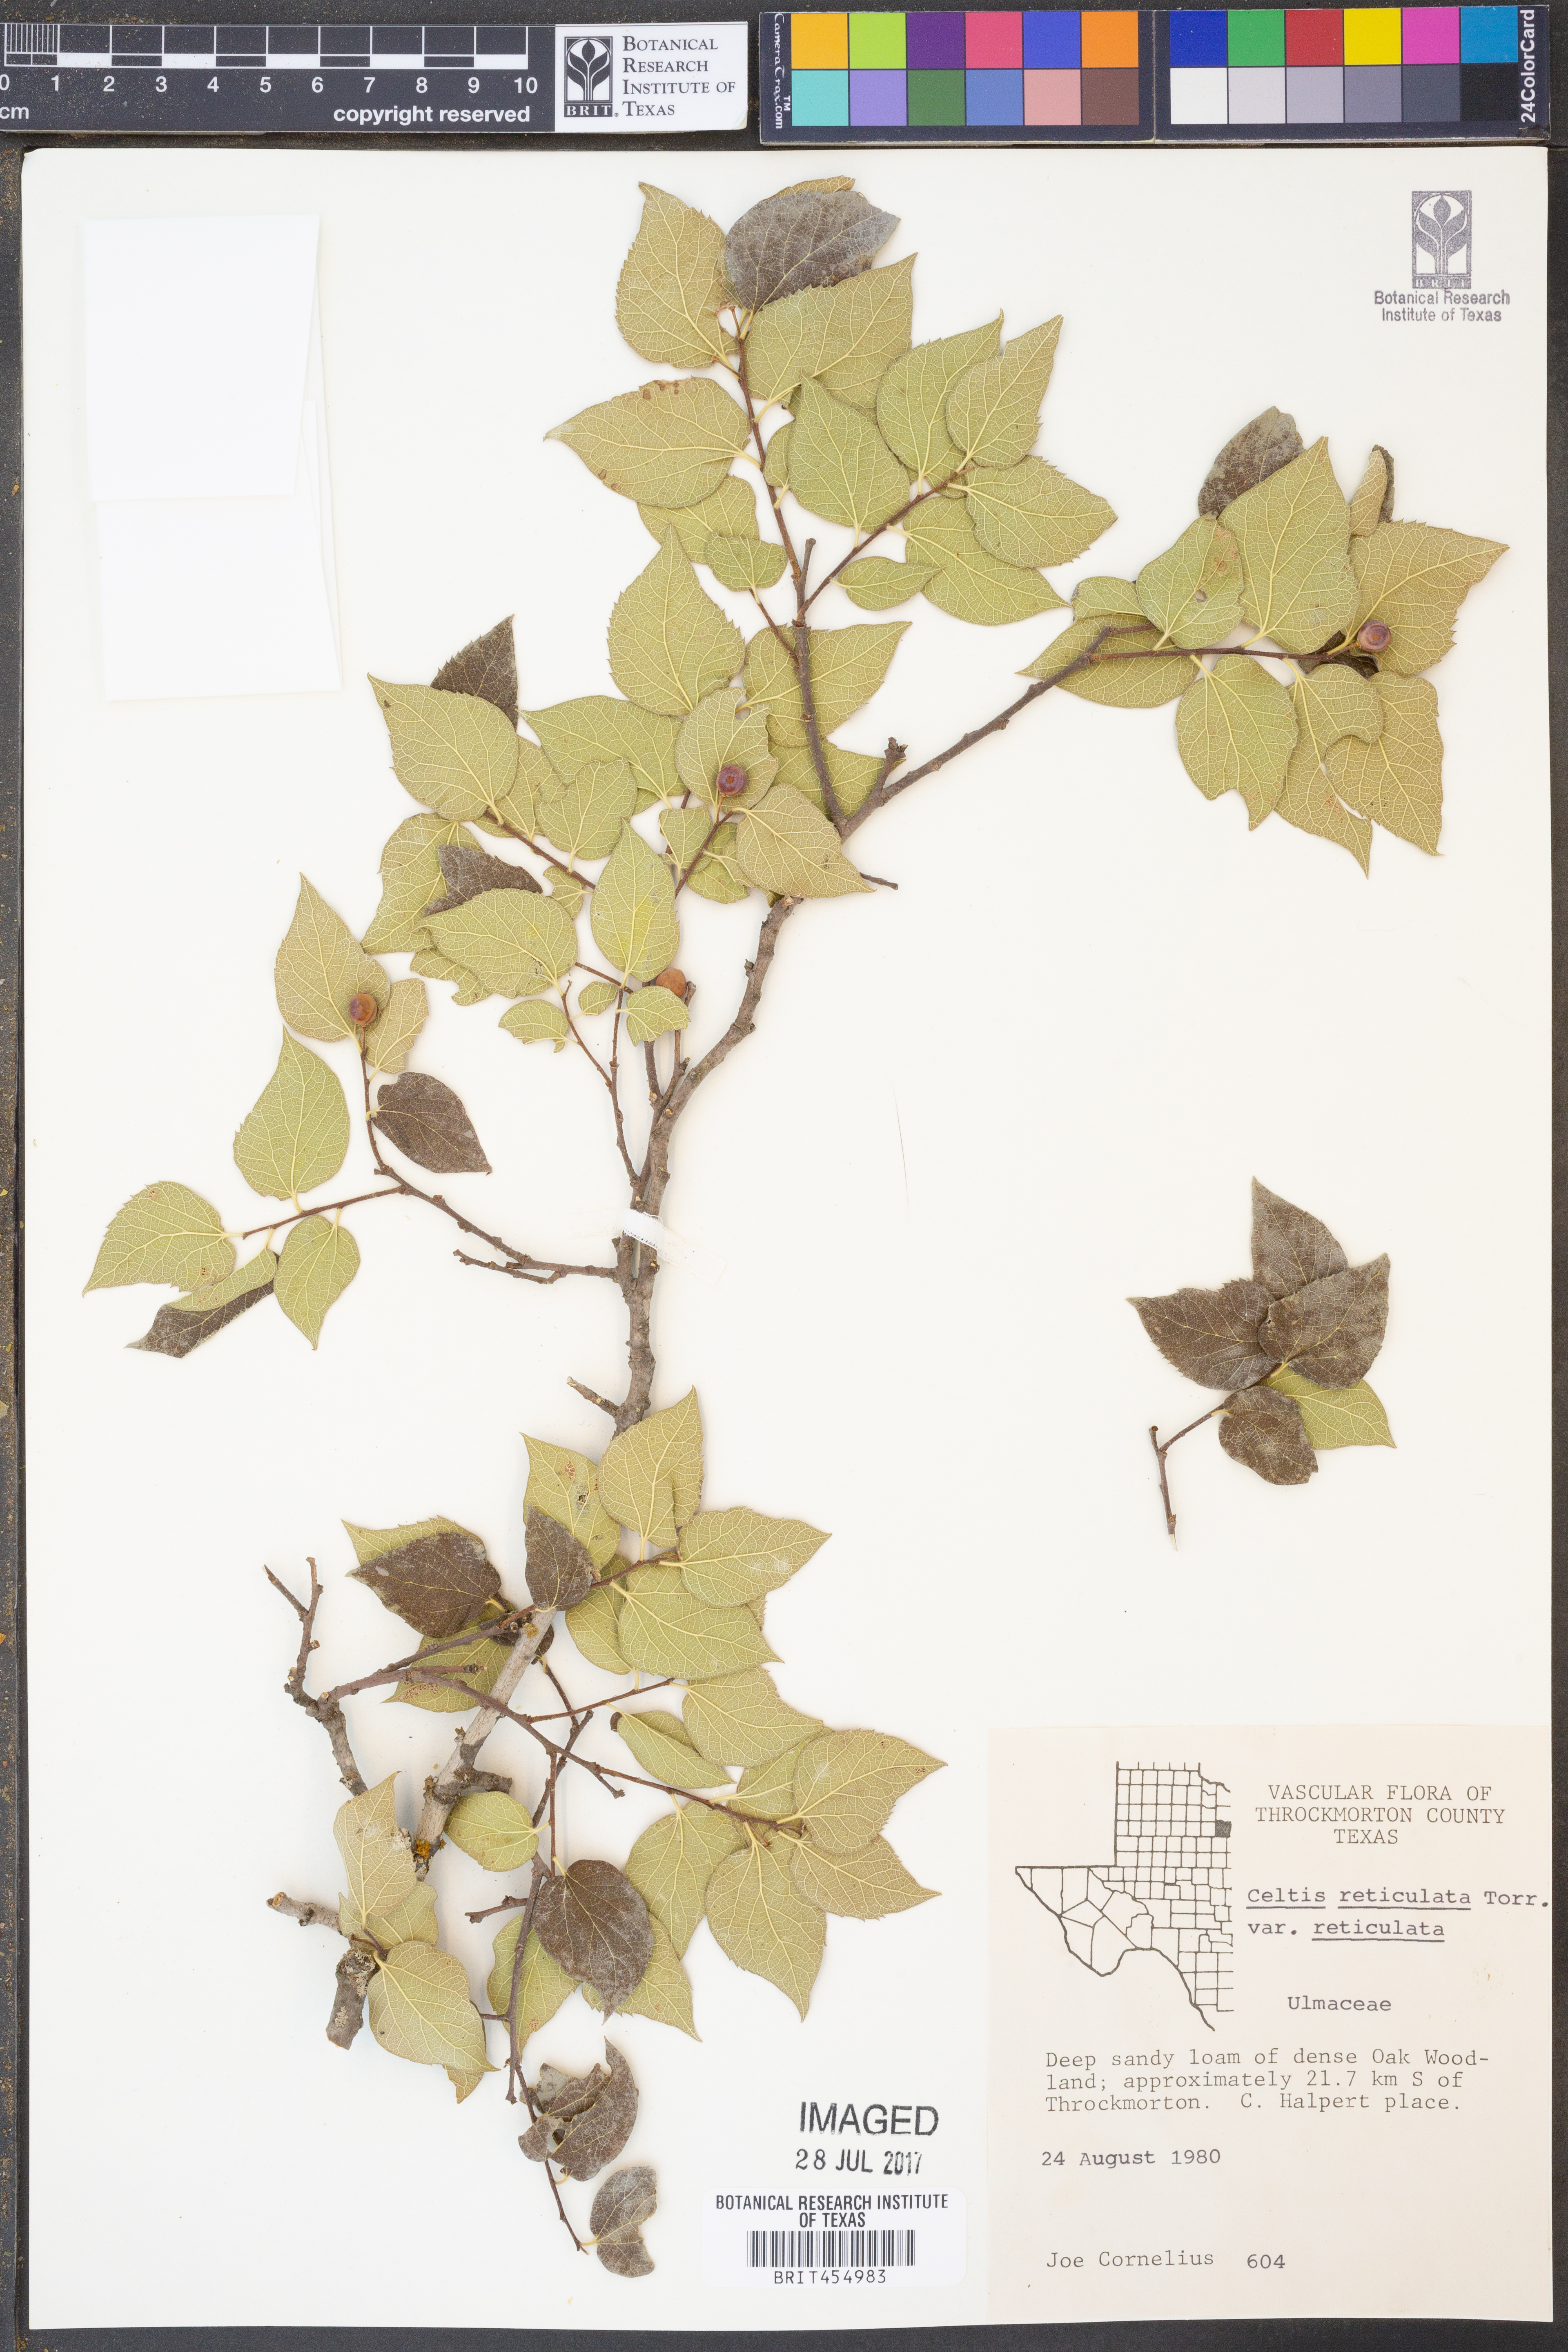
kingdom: Plantae
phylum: Tracheophyta
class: Magnoliopsida
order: Rosales
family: Cannabaceae
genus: Celtis
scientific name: Celtis reticulata
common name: Netleaf hackberry
